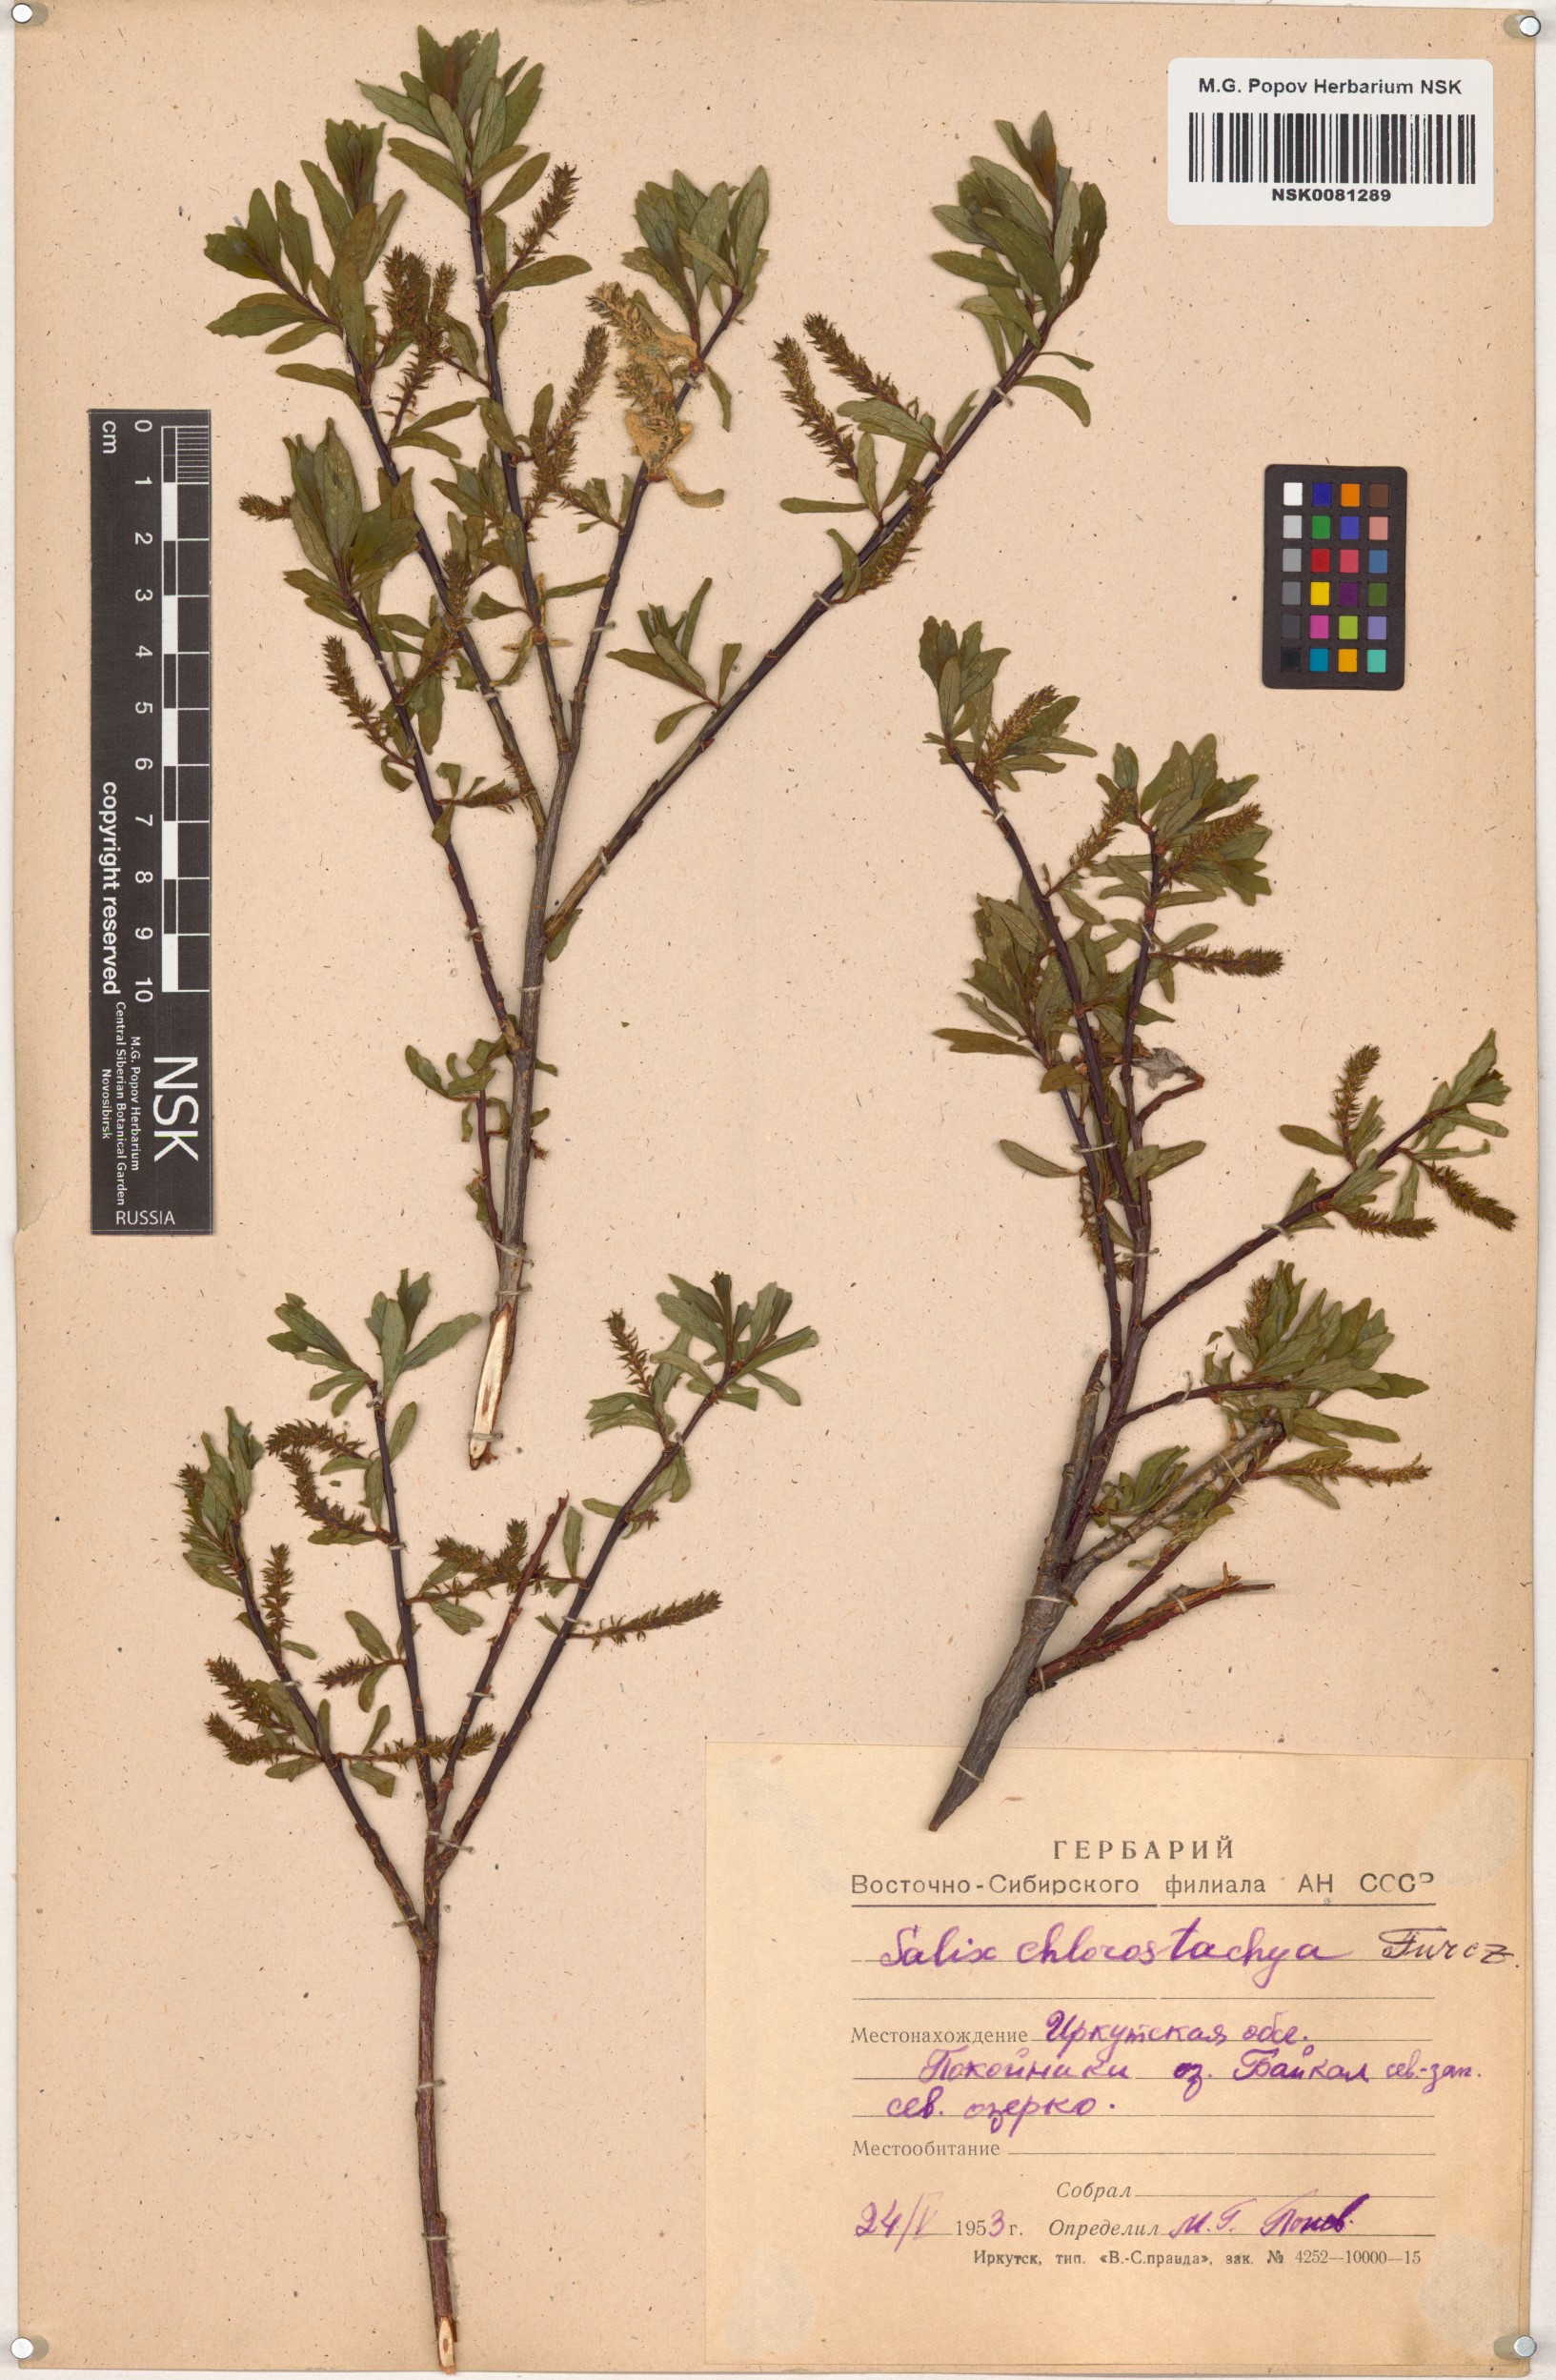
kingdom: Plantae
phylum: Tracheophyta
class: Magnoliopsida
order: Malpighiales
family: Salicaceae
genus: Salix
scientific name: Salix rhamnifolia
